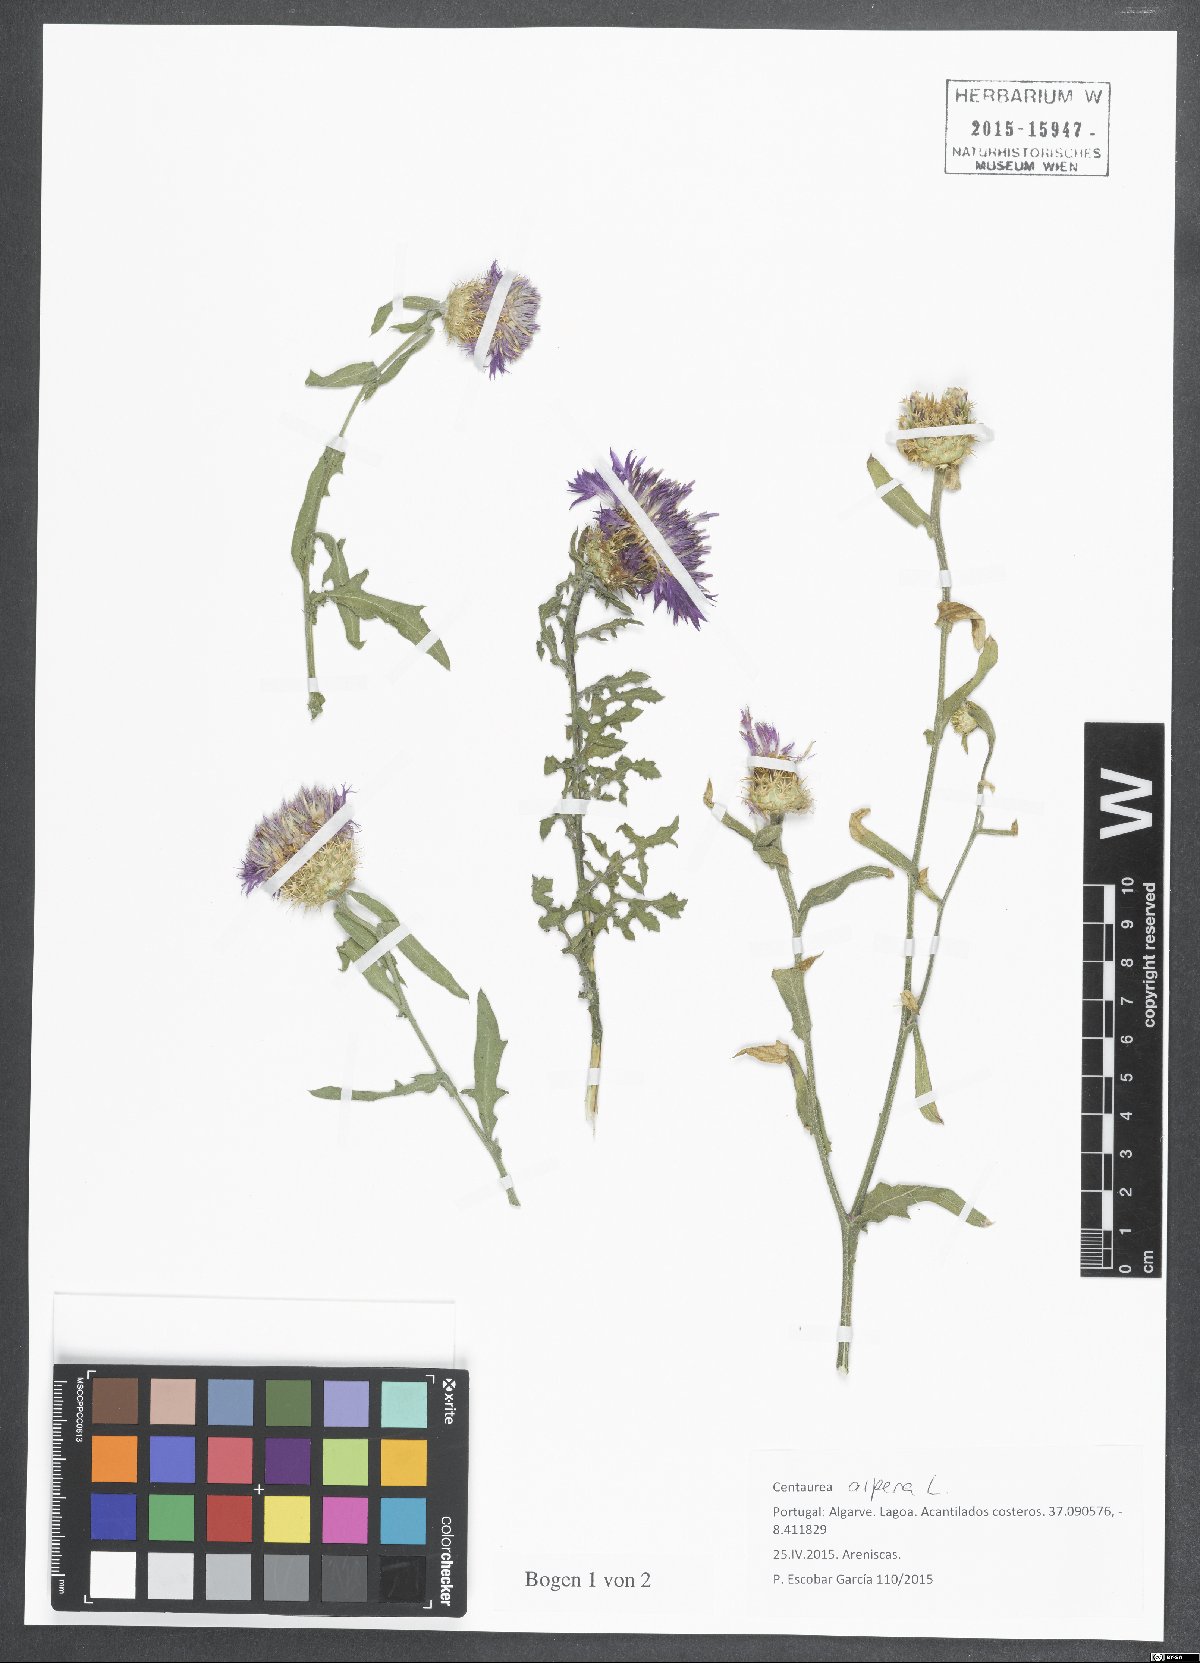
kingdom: Plantae
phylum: Tracheophyta
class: Magnoliopsida
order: Asterales
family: Asteraceae
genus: Centaurea
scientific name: Centaurea aspera
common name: Rough star-thistle
